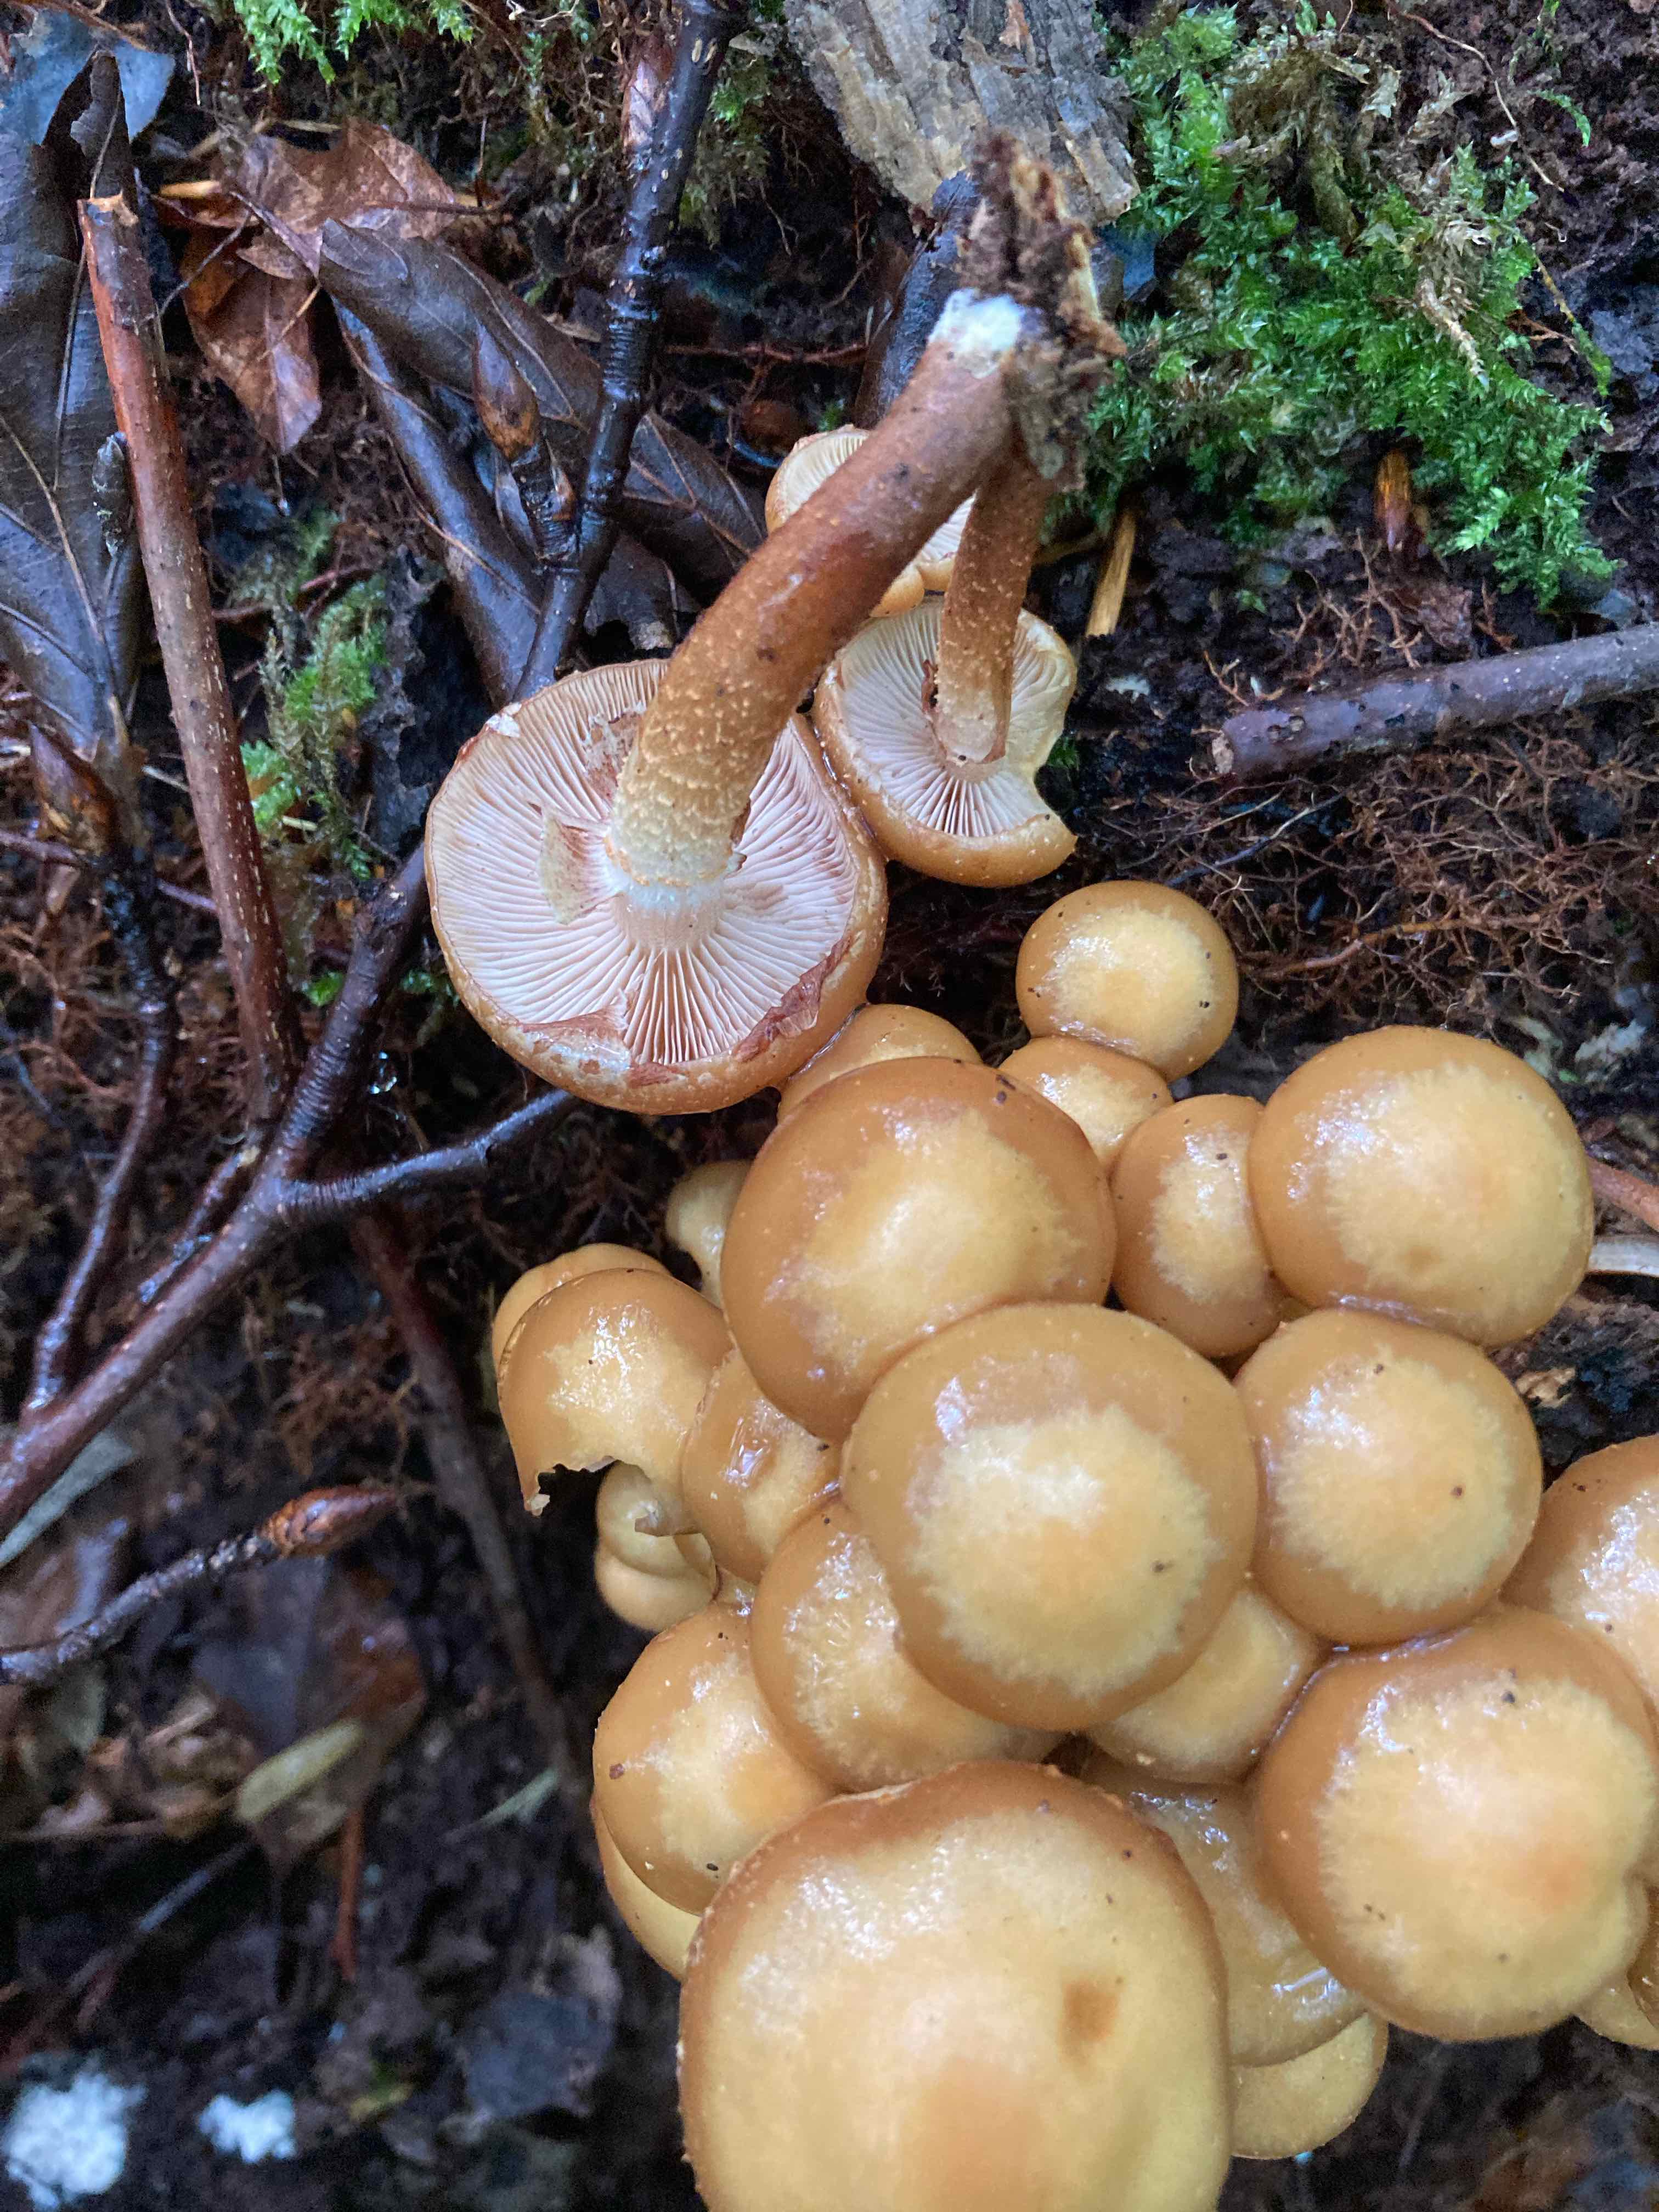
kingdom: Fungi
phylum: Basidiomycota
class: Agaricomycetes
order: Agaricales
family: Strophariaceae
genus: Kuehneromyces
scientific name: Kuehneromyces mutabilis
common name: foranderlig skælhat
